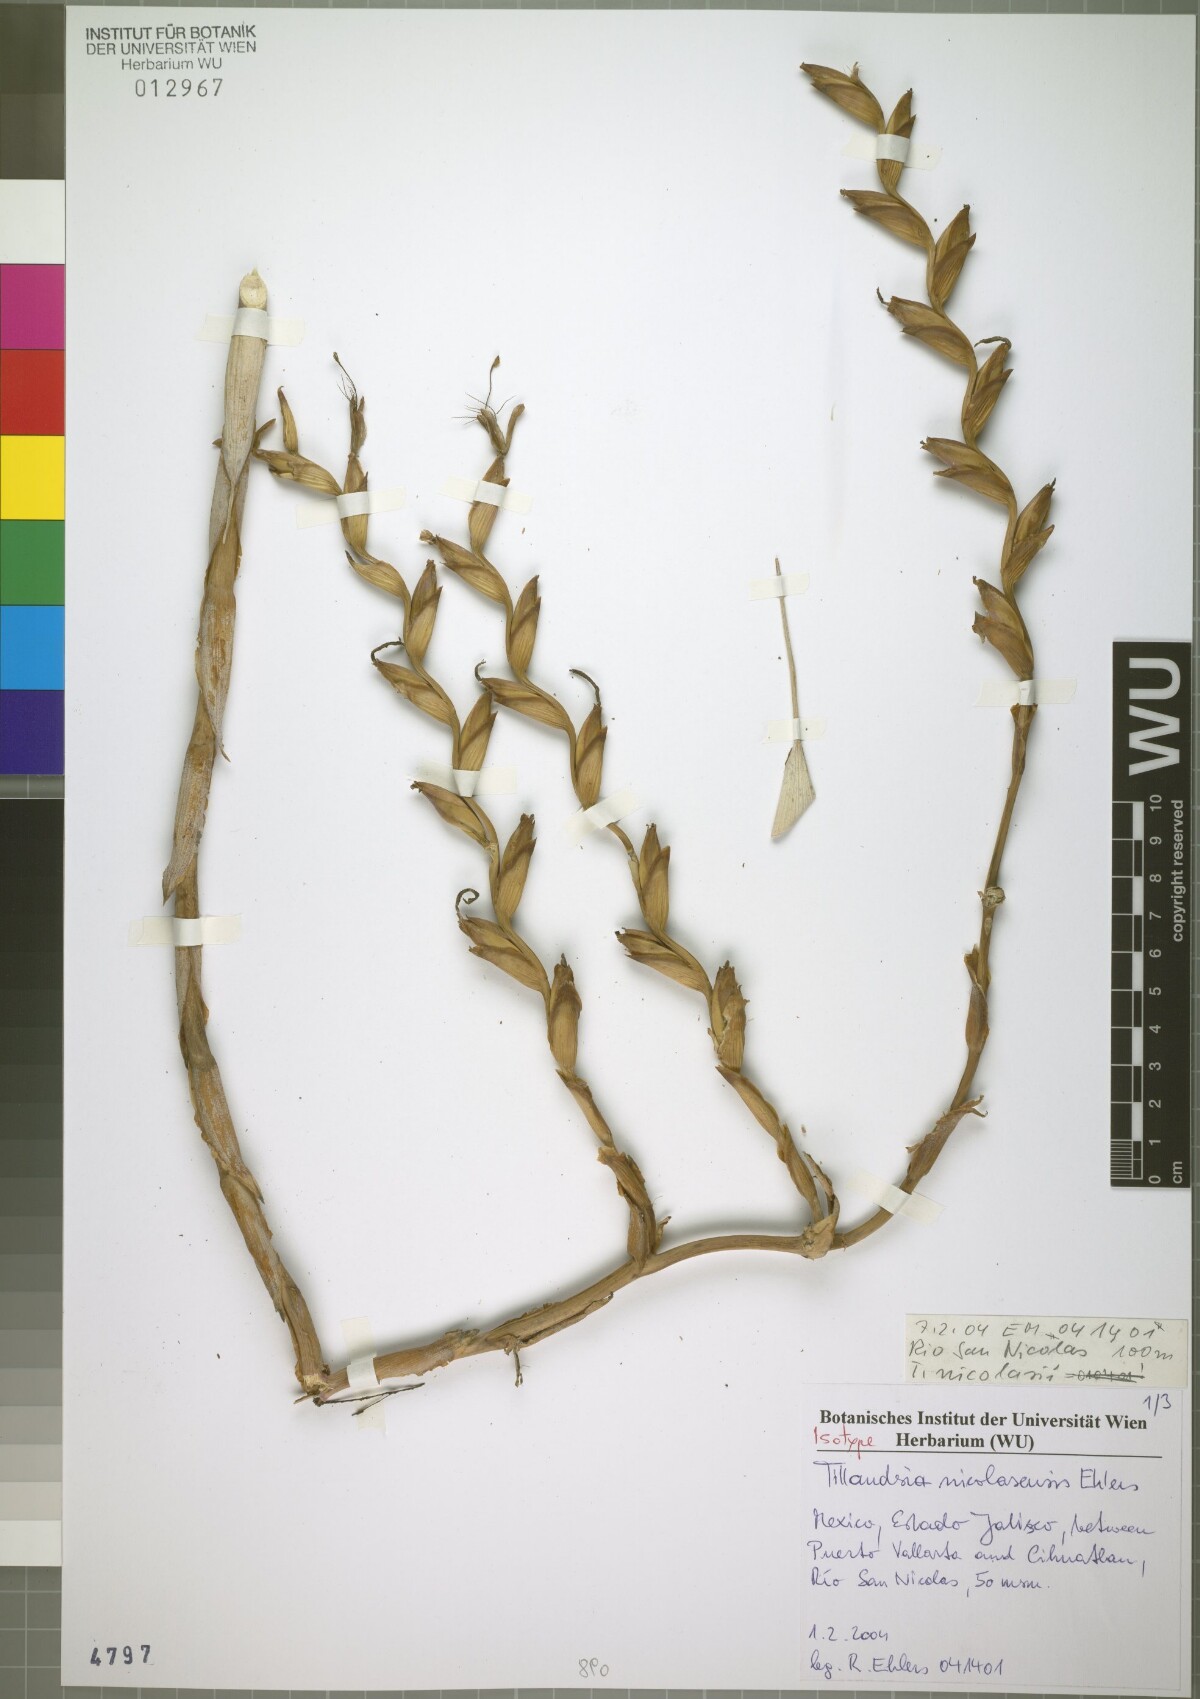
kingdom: Plantae
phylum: Tracheophyta
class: Liliopsida
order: Poales
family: Bromeliaceae
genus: Tillandsia
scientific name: Tillandsia nicolasensis
